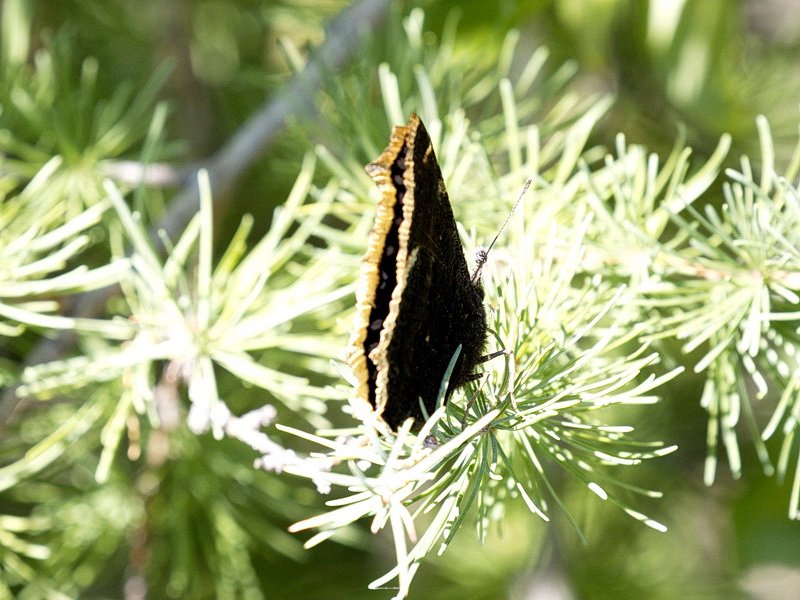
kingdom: Animalia
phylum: Arthropoda
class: Insecta
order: Lepidoptera
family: Nymphalidae
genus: Nymphalis
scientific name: Nymphalis antiopa
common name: Mourning Cloak
